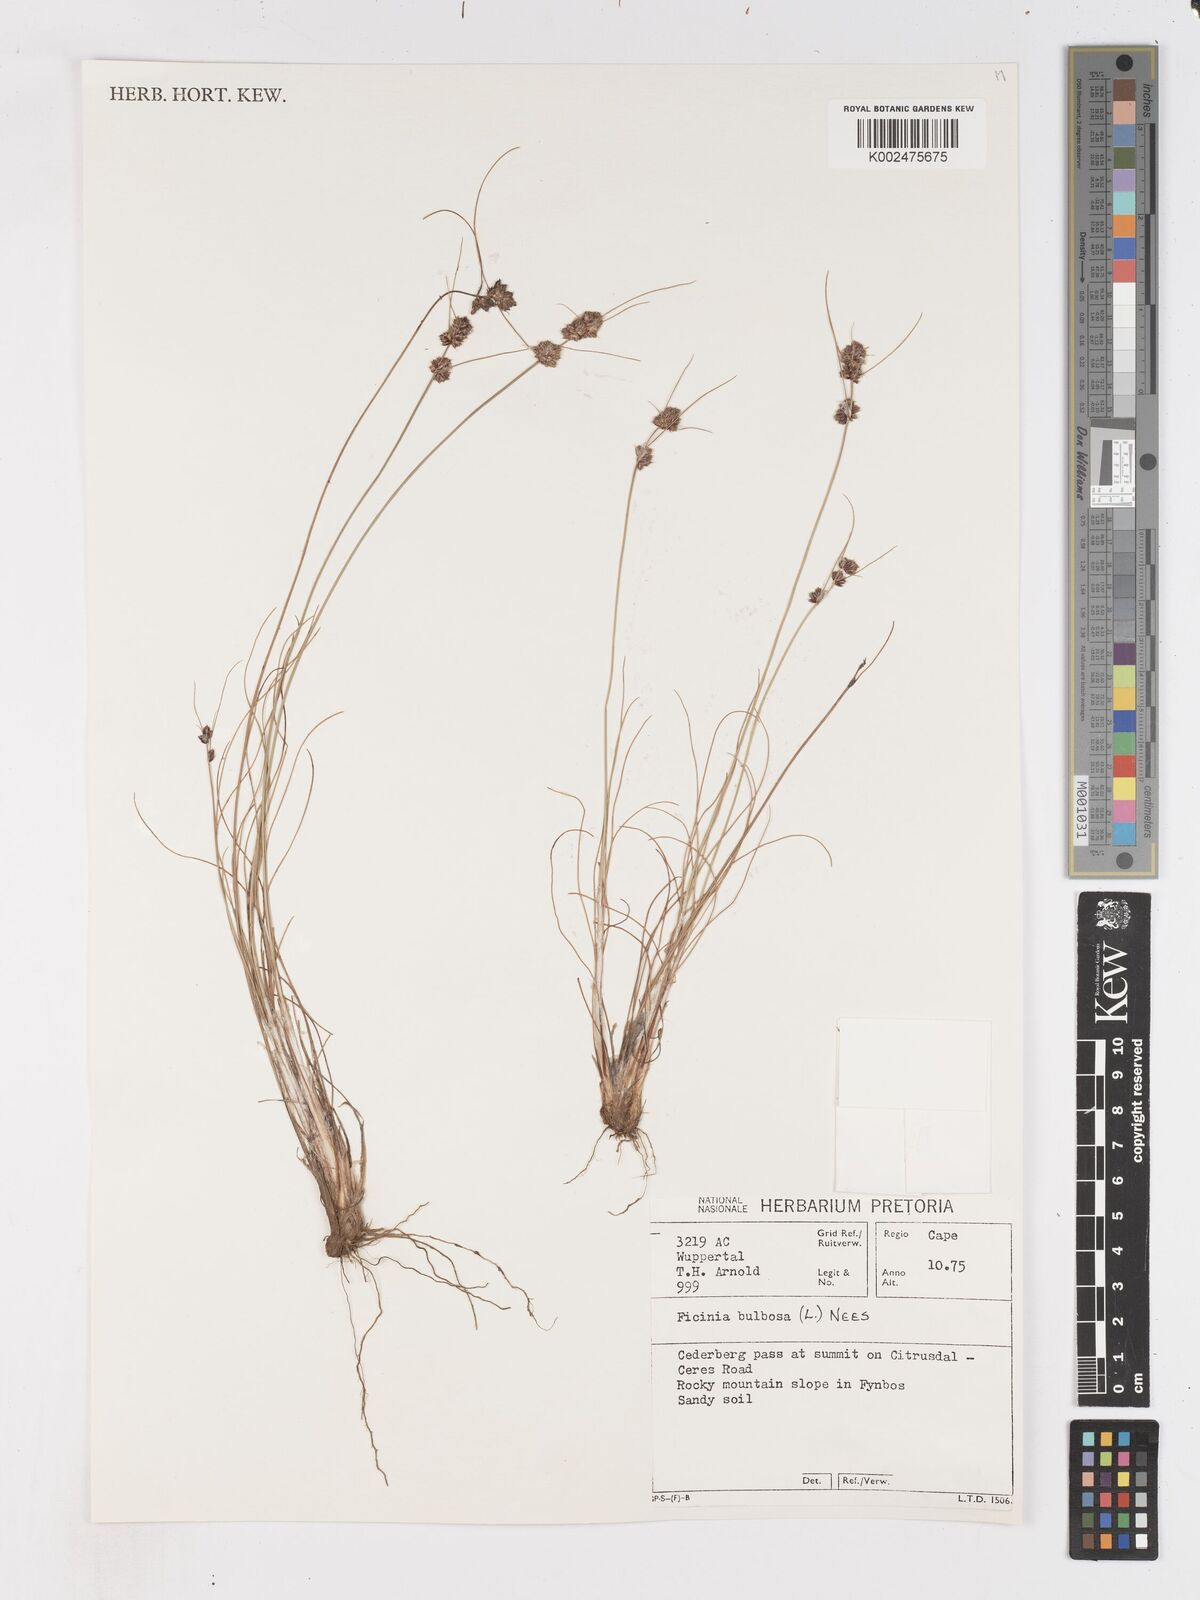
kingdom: Plantae
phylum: Tracheophyta
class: Liliopsida
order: Poales
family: Cyperaceae
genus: Ficinia
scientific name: Ficinia bulbosa
